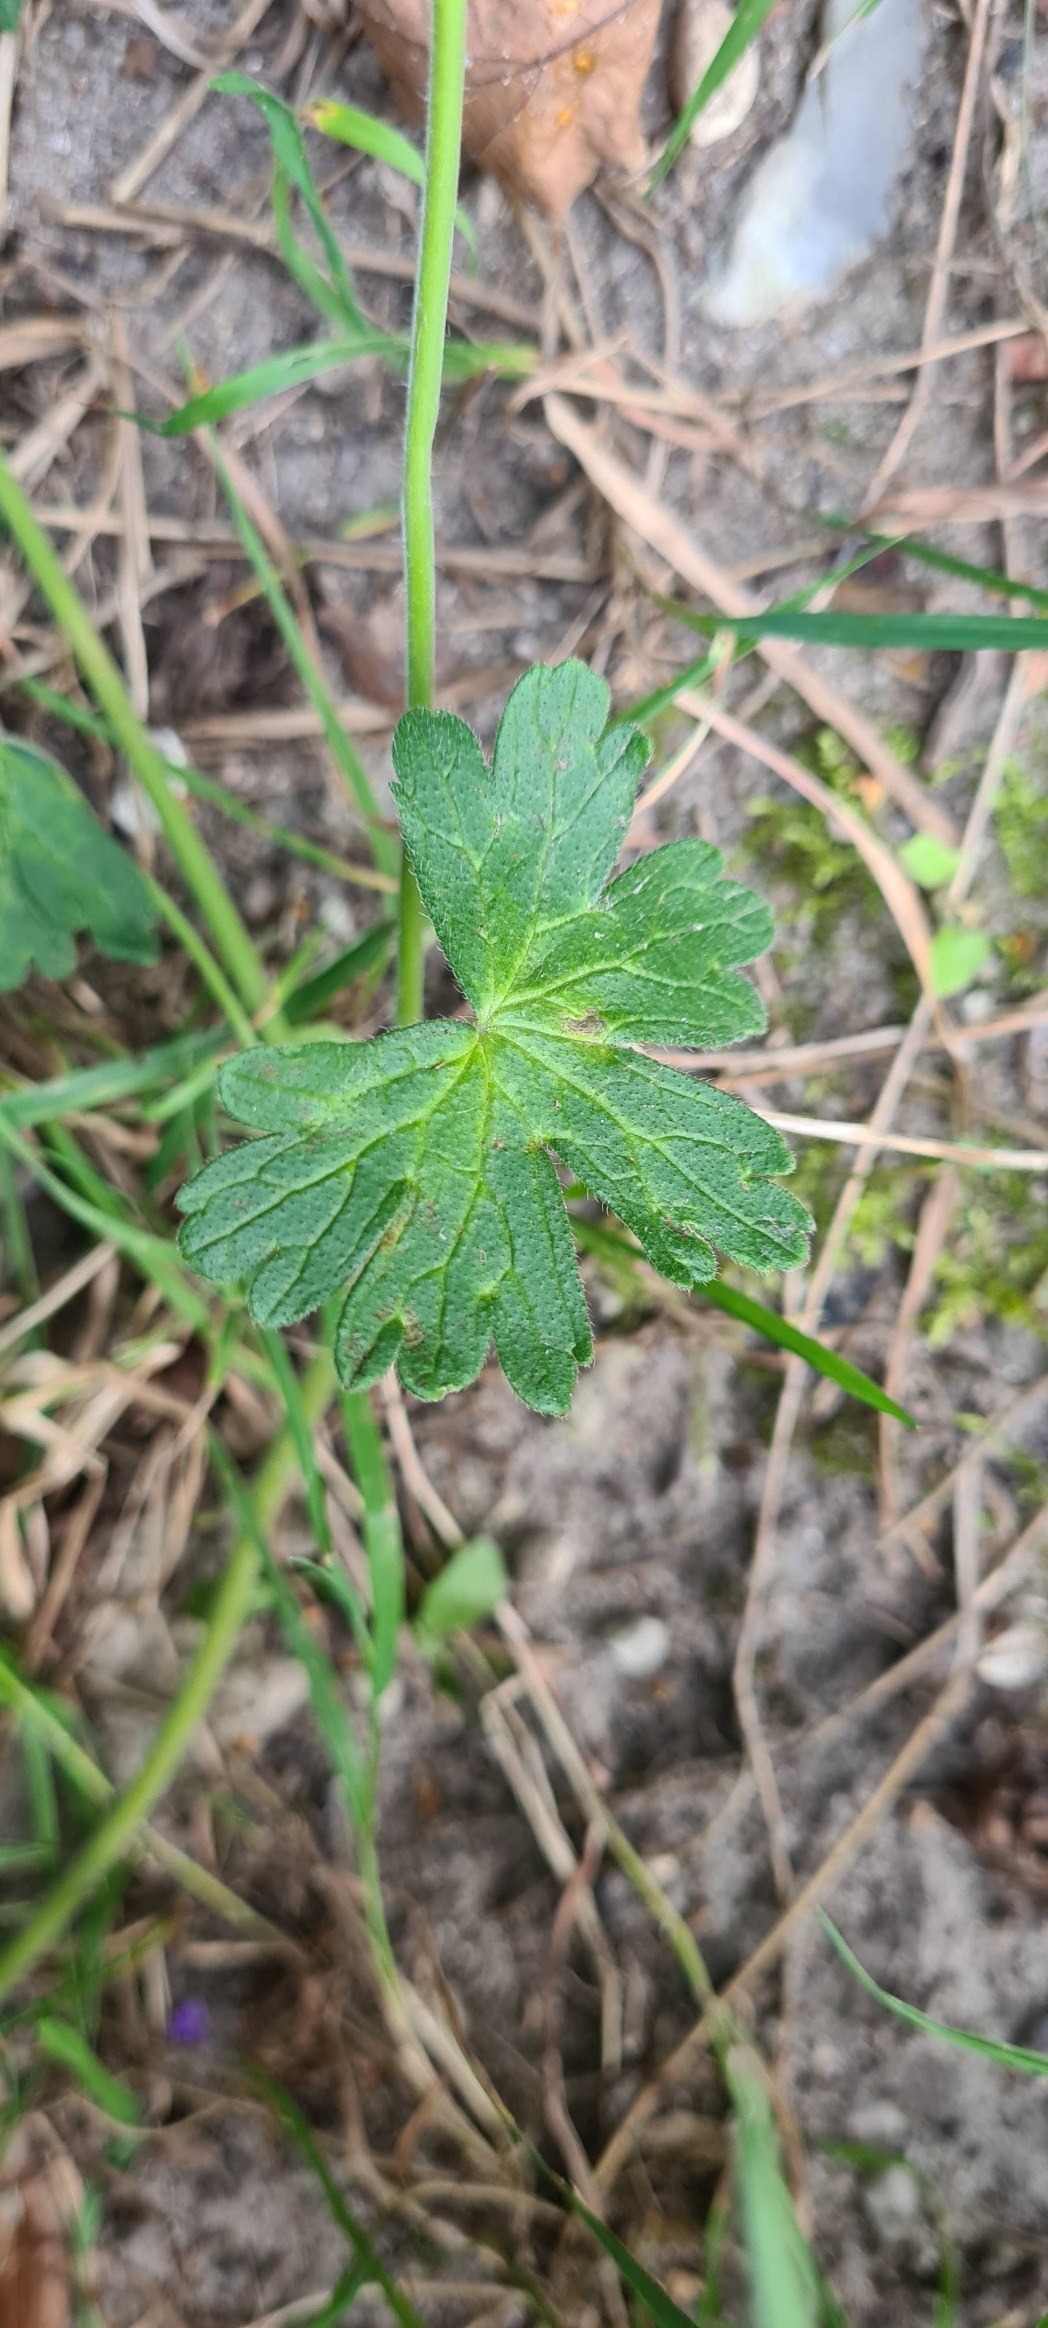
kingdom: Plantae
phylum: Tracheophyta
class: Magnoliopsida
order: Geraniales
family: Geraniaceae
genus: Geranium
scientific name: Geranium pyrenaicum
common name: Pyrenæisk storkenæb
